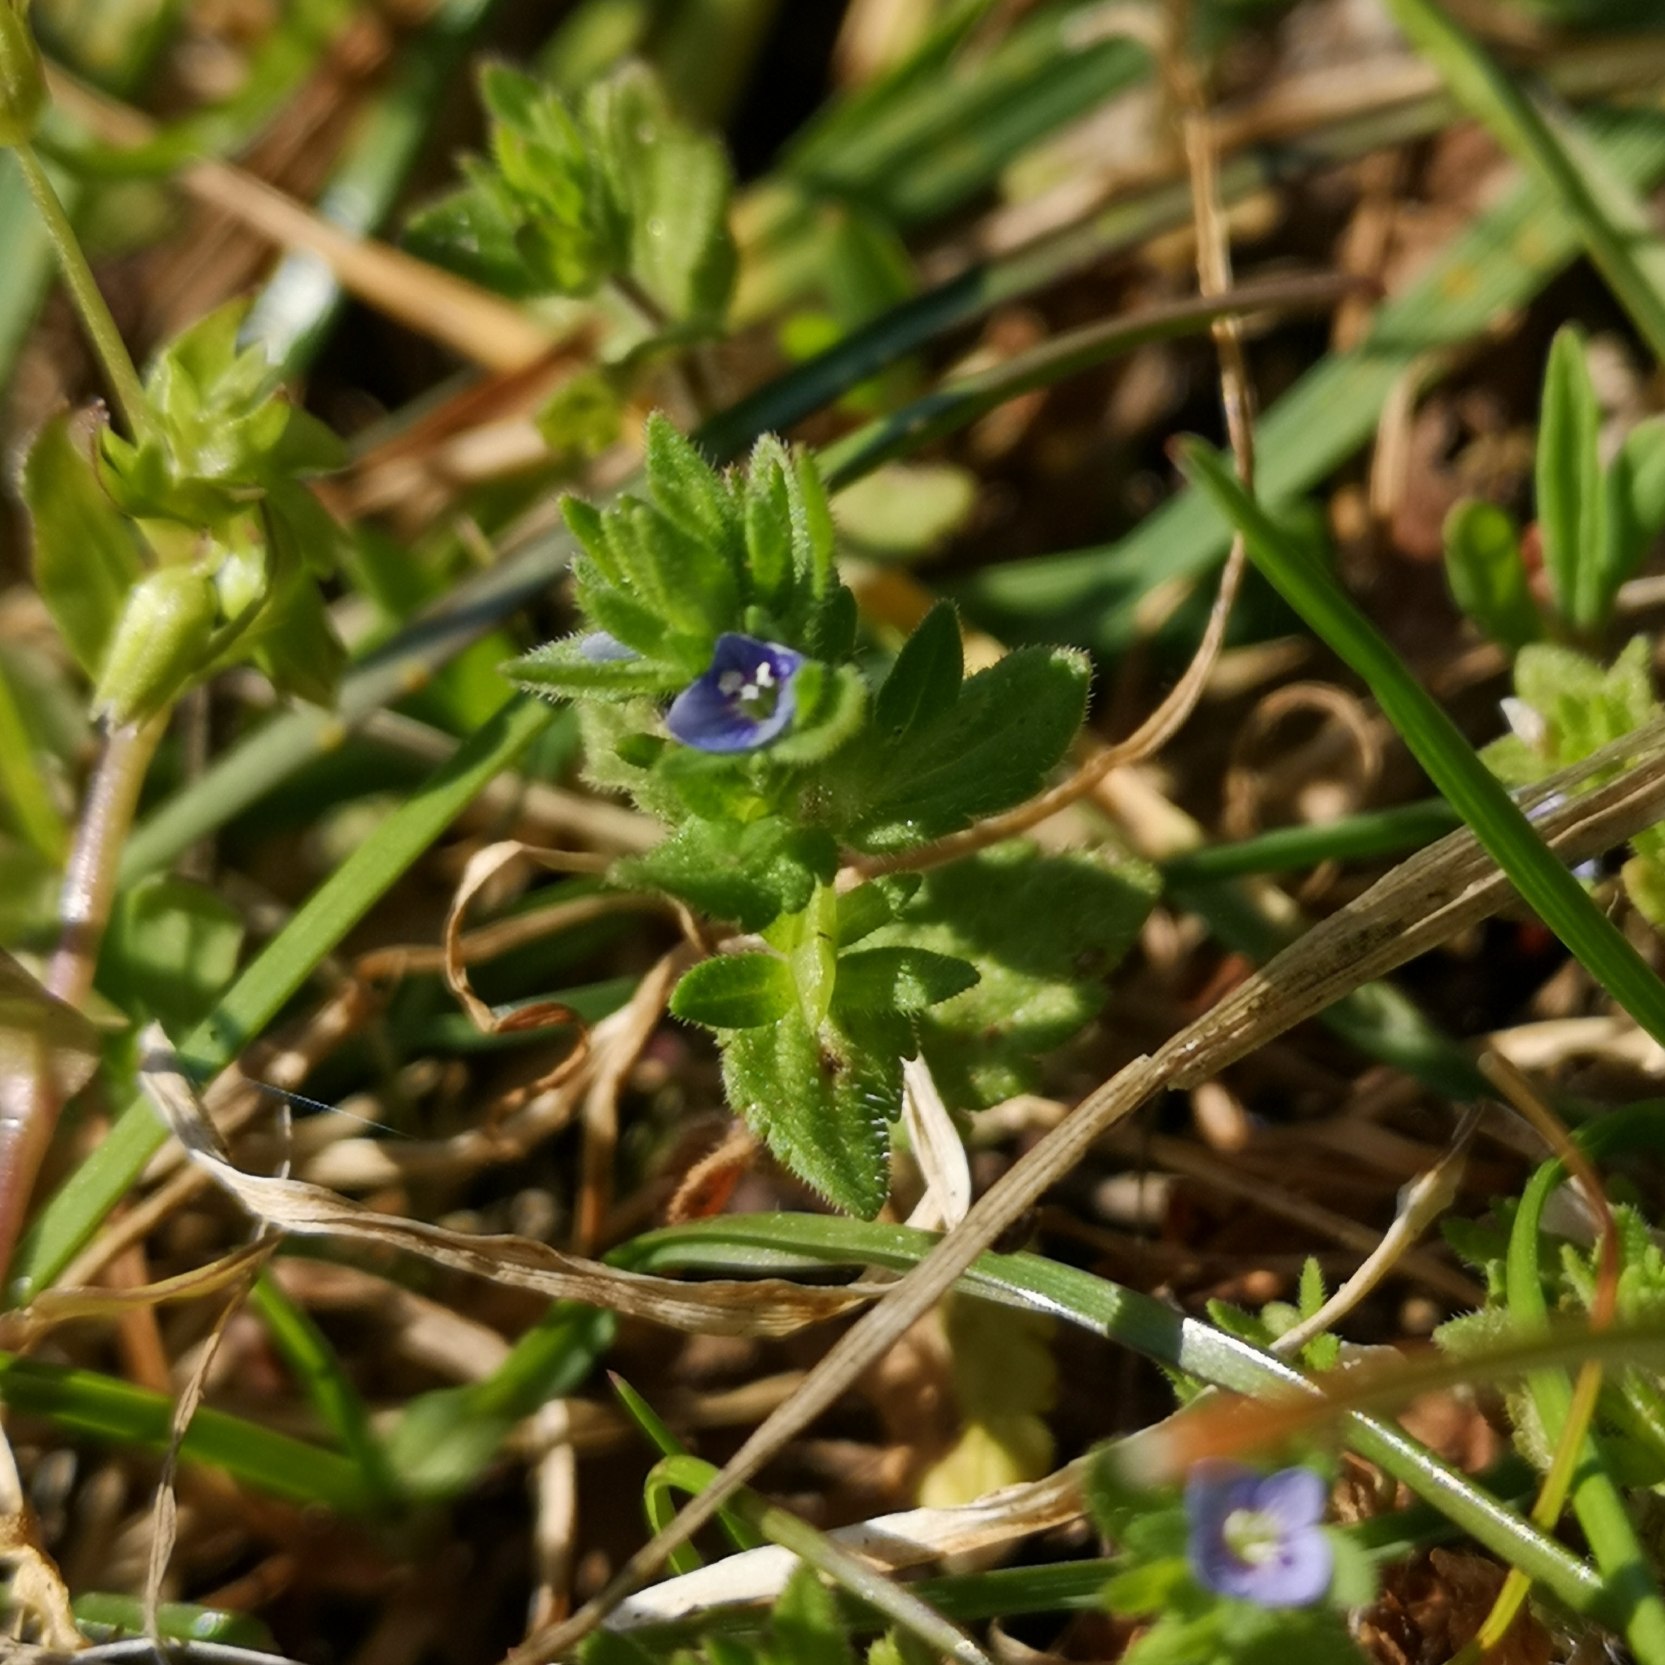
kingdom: Plantae
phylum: Tracheophyta
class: Magnoliopsida
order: Lamiales
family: Plantaginaceae
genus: Veronica
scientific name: Veronica arvensis
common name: Mark-ærenpris
